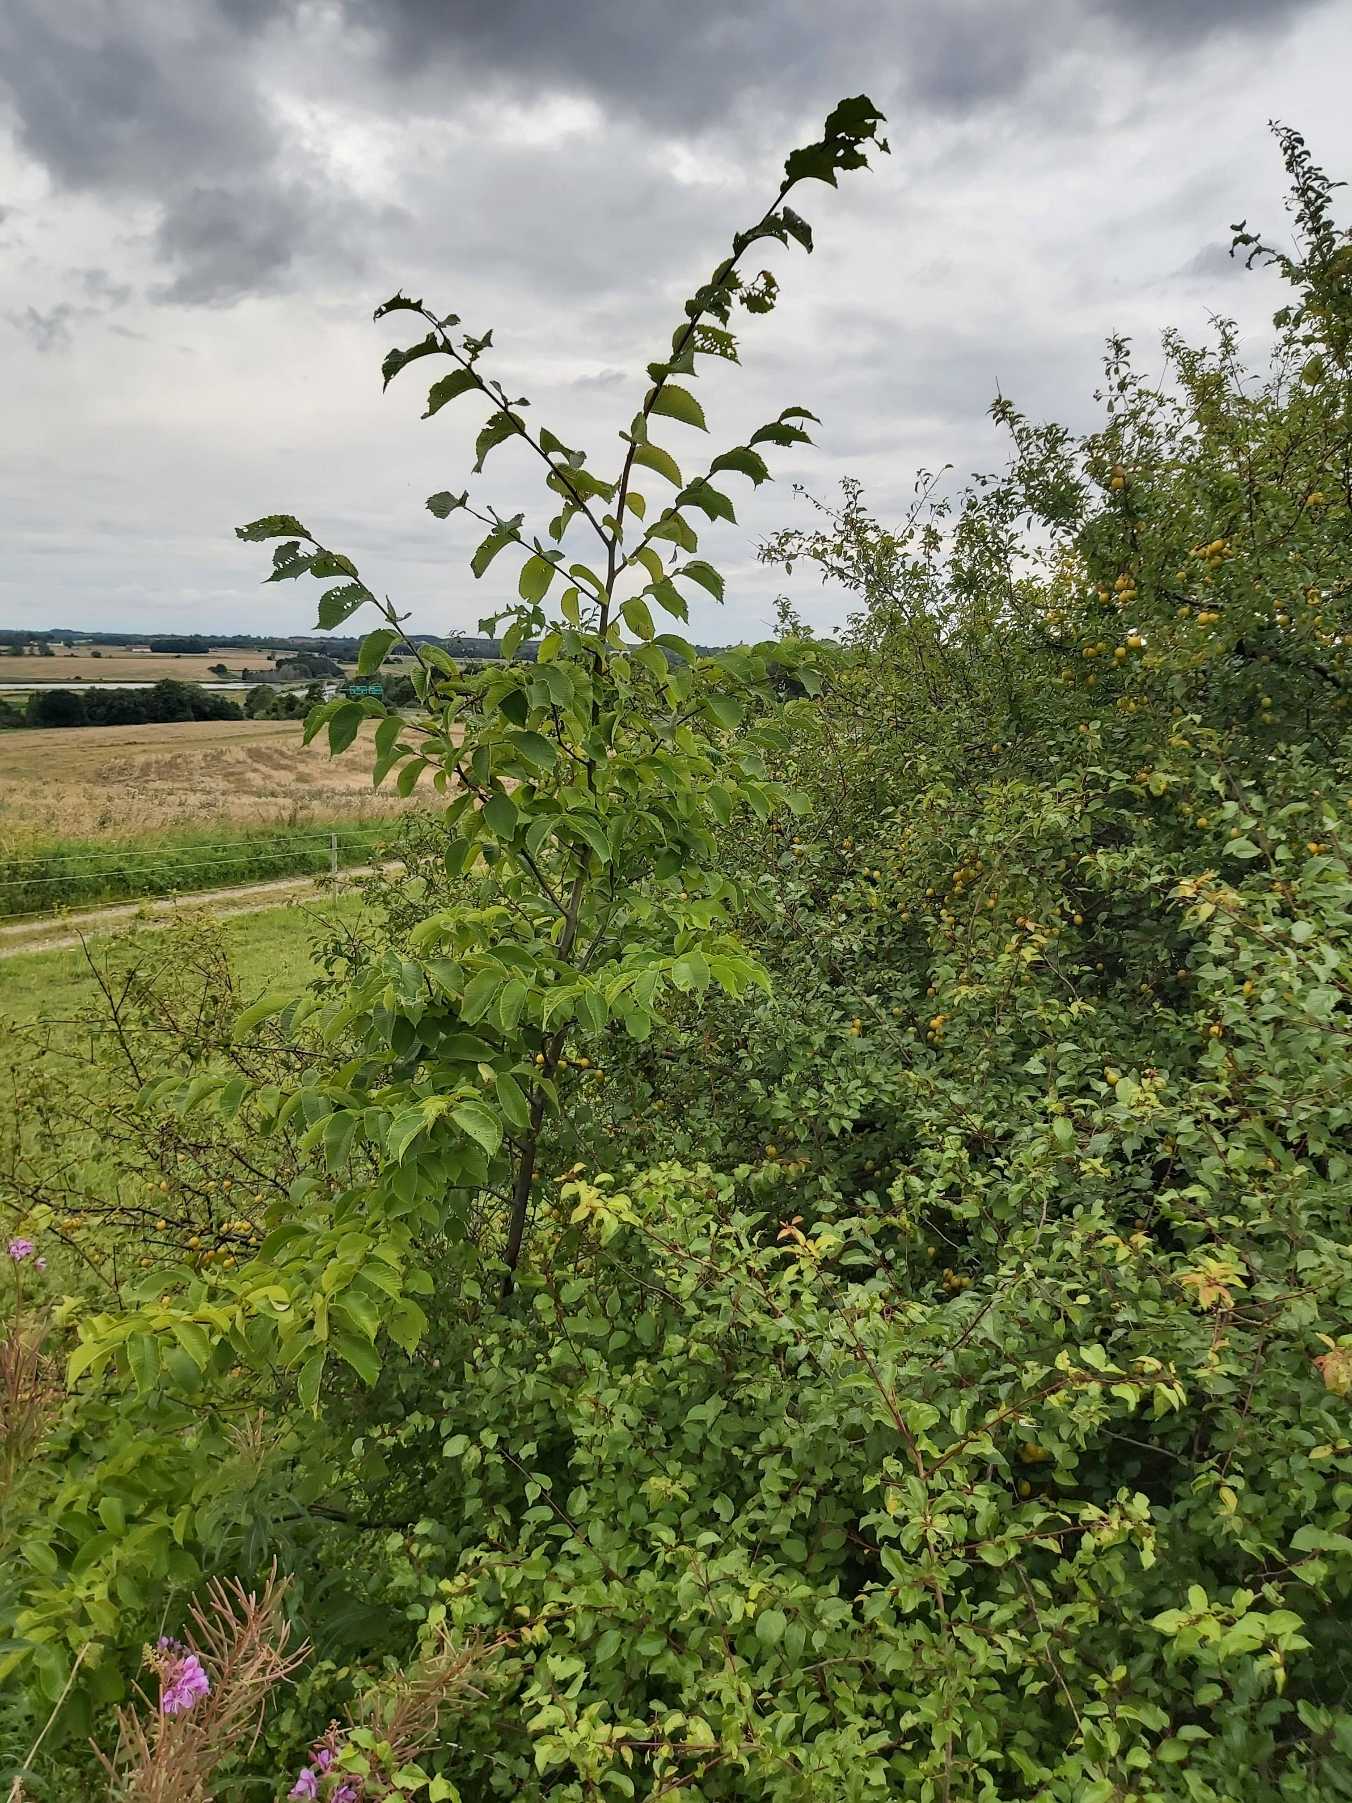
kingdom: Plantae
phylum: Tracheophyta
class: Magnoliopsida
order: Rosales
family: Ulmaceae
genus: Ulmus
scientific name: Ulmus glabra
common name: Skov-elm/storbladet elm
